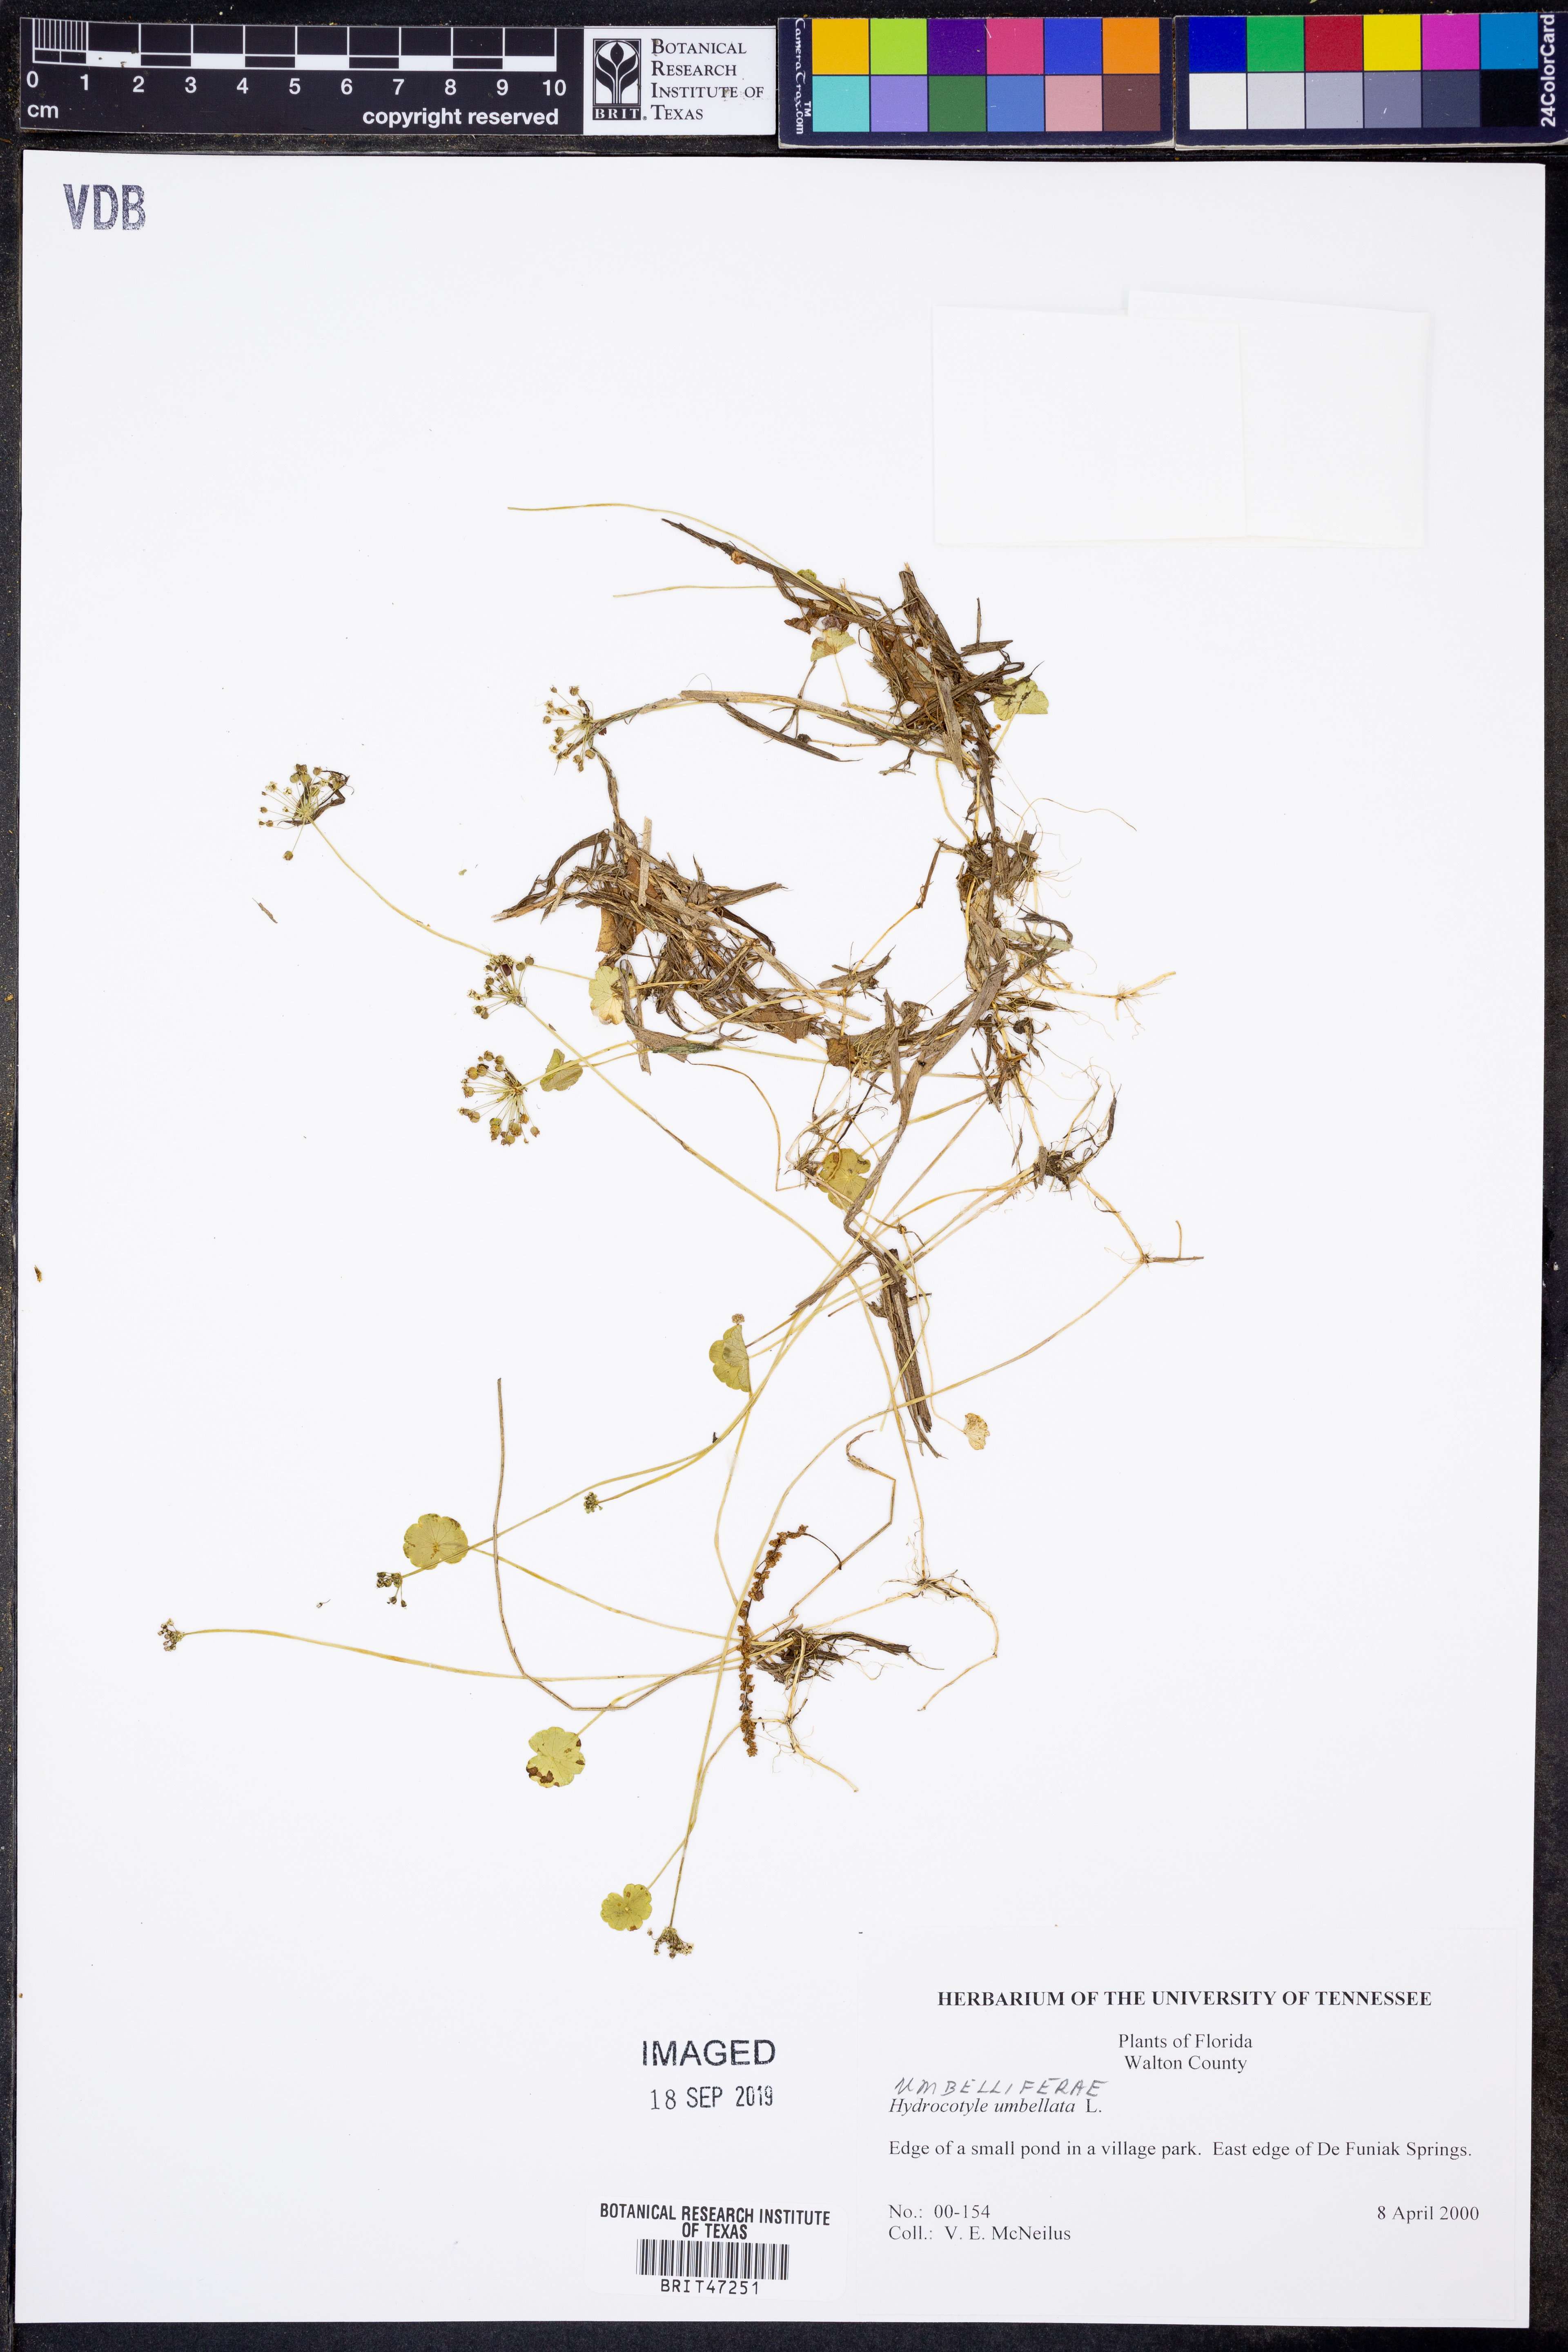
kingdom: Plantae
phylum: Tracheophyta
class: Magnoliopsida
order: Apiales
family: Araliaceae
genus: Hydrocotyle
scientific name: Hydrocotyle umbellata
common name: Water pennywort
